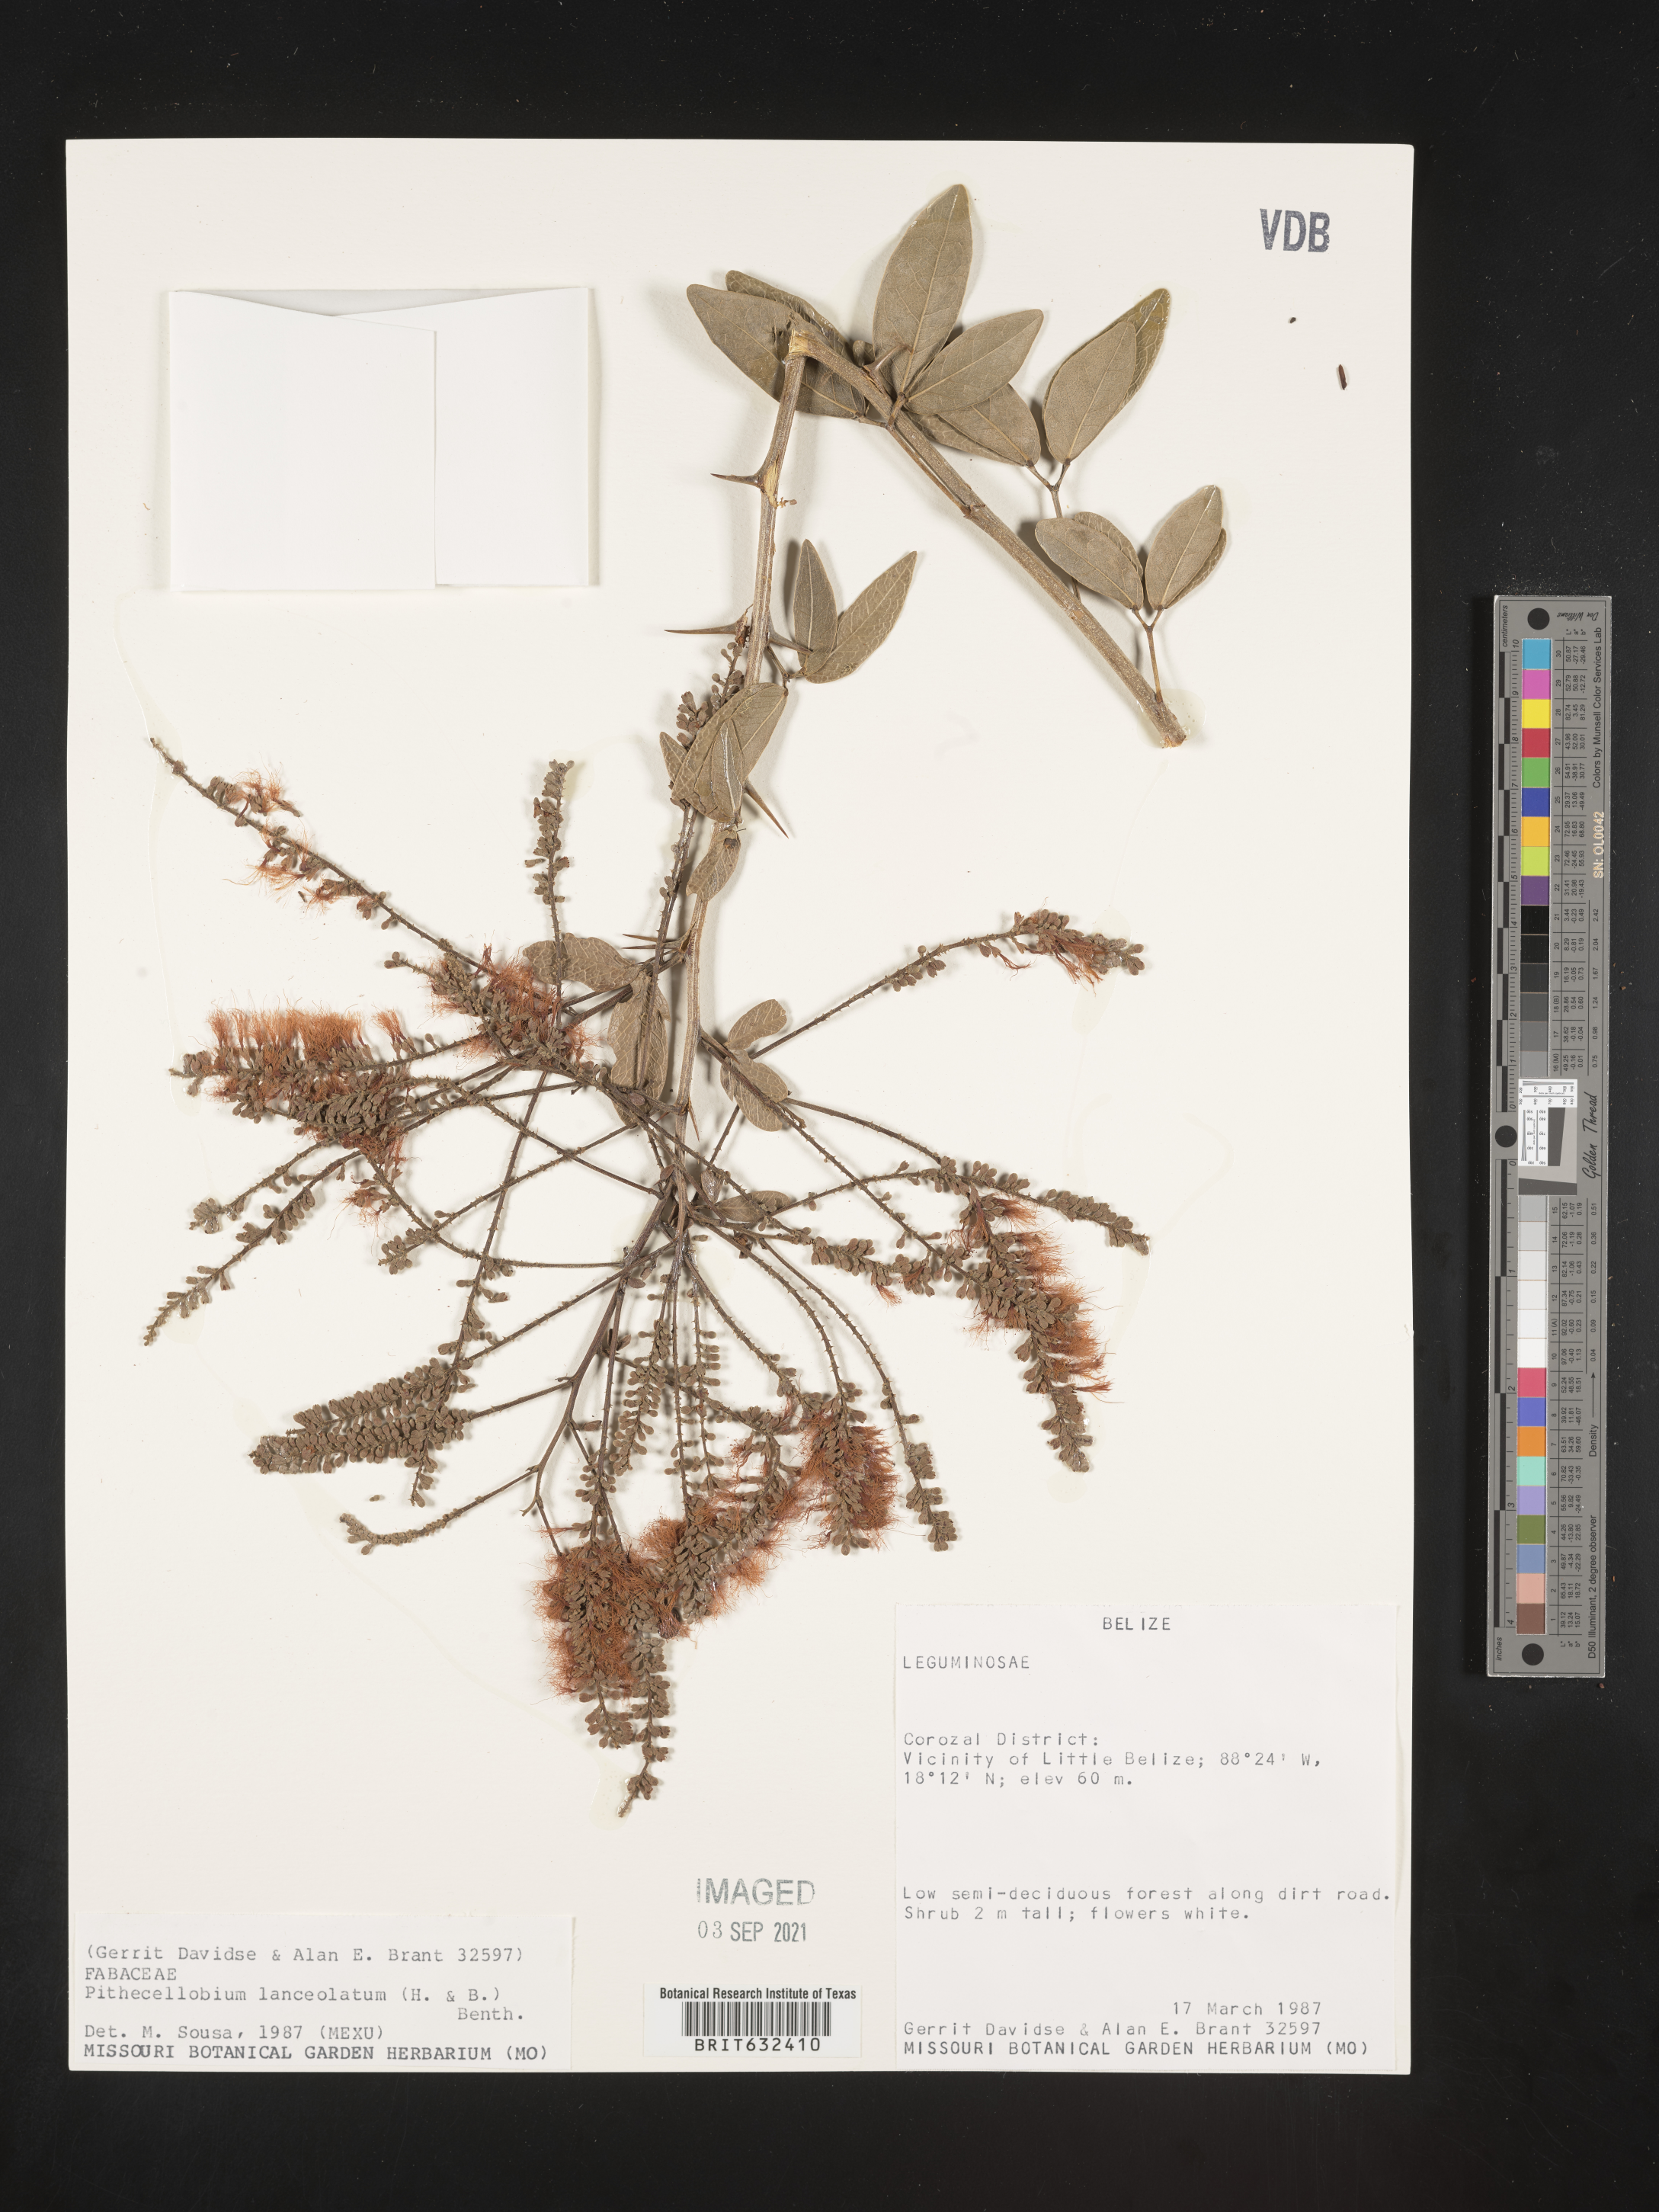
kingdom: Plantae
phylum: Tracheophyta
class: Magnoliopsida
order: Fabales
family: Fabaceae
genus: Pithecellobium
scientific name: Pithecellobium
